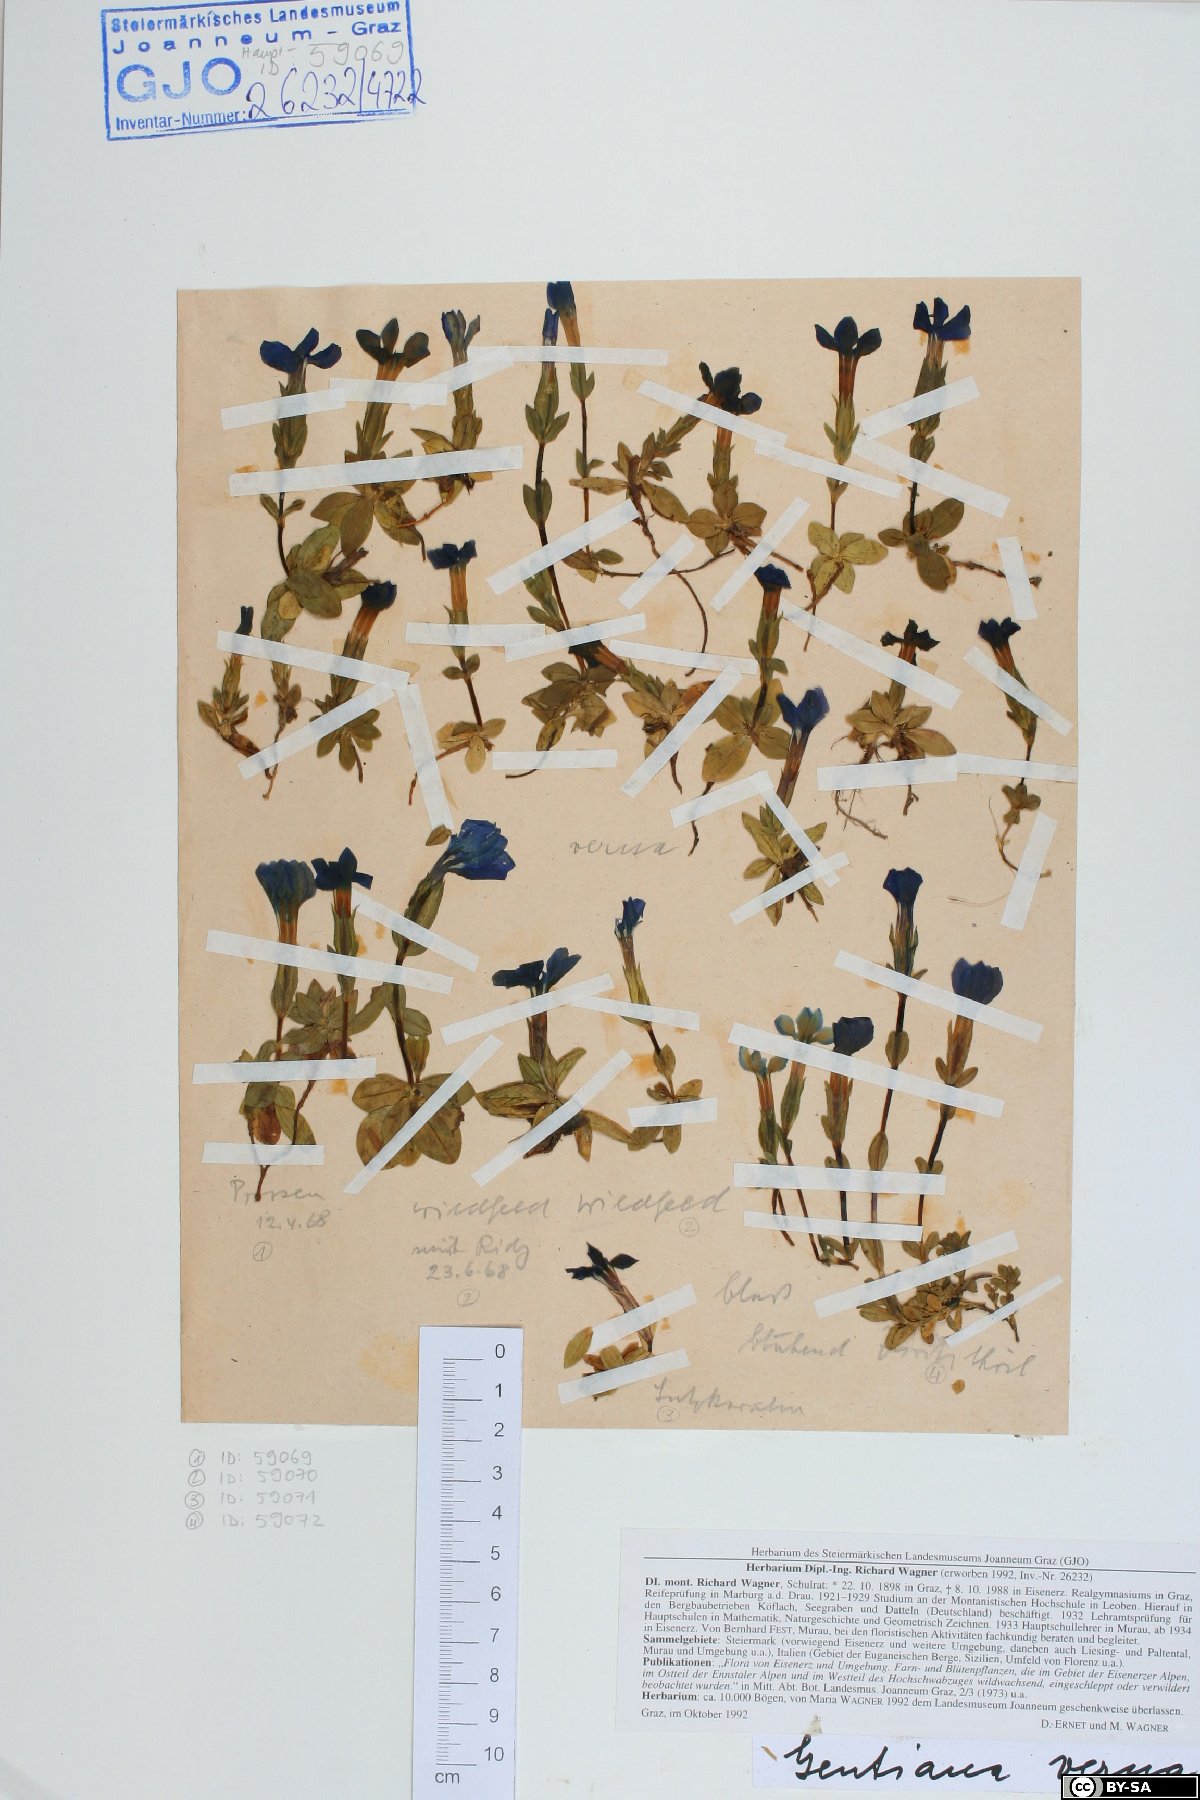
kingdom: Plantae
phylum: Tracheophyta
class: Magnoliopsida
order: Gentianales
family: Gentianaceae
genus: Gentiana
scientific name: Gentiana verna
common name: Spring gentian
